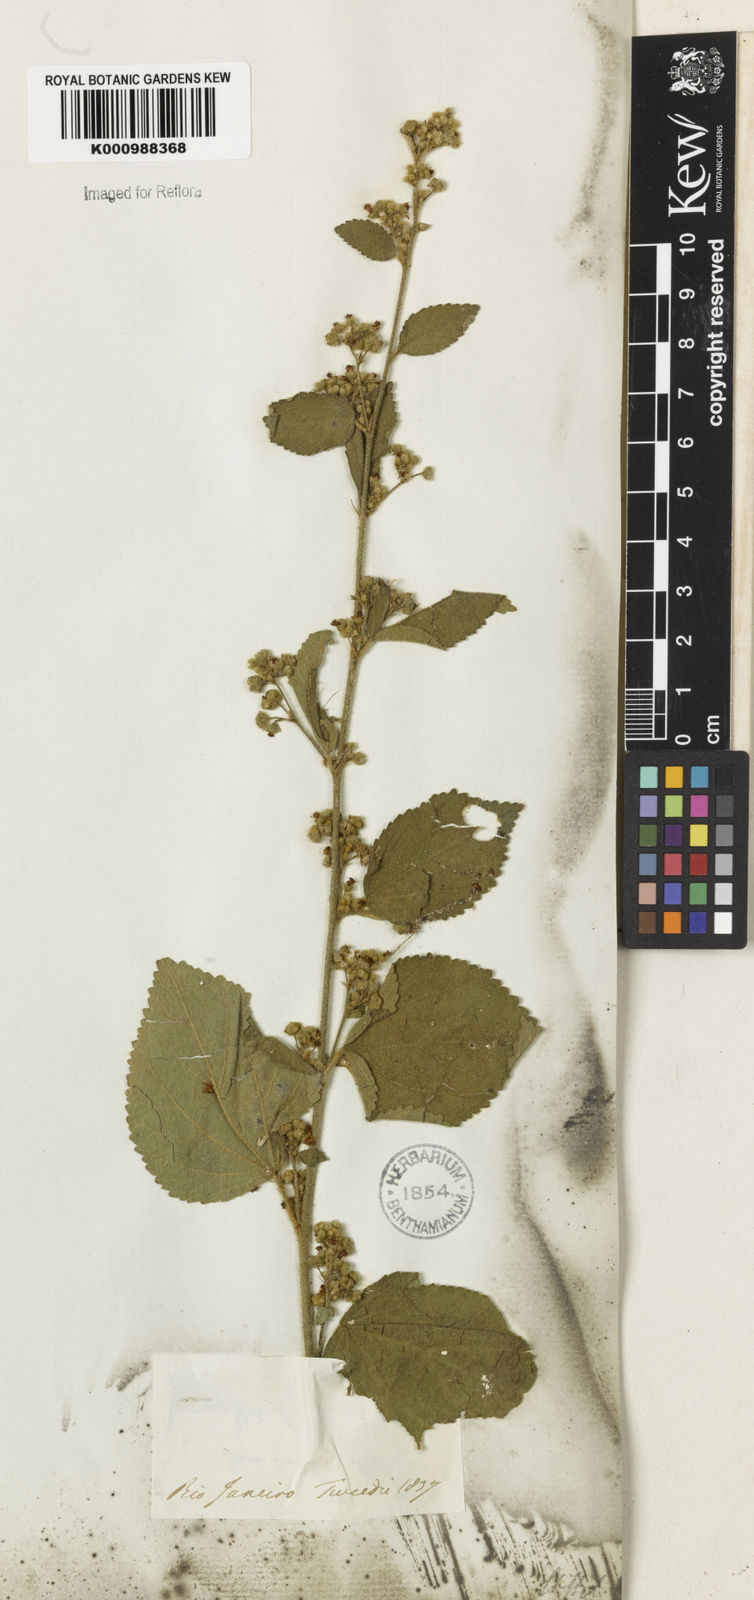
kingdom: Plantae
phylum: Tracheophyta
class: Magnoliopsida
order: Malvales
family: Malvaceae
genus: Sidastrum
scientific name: Sidastrum micranthum
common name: Dainty sandmallow
